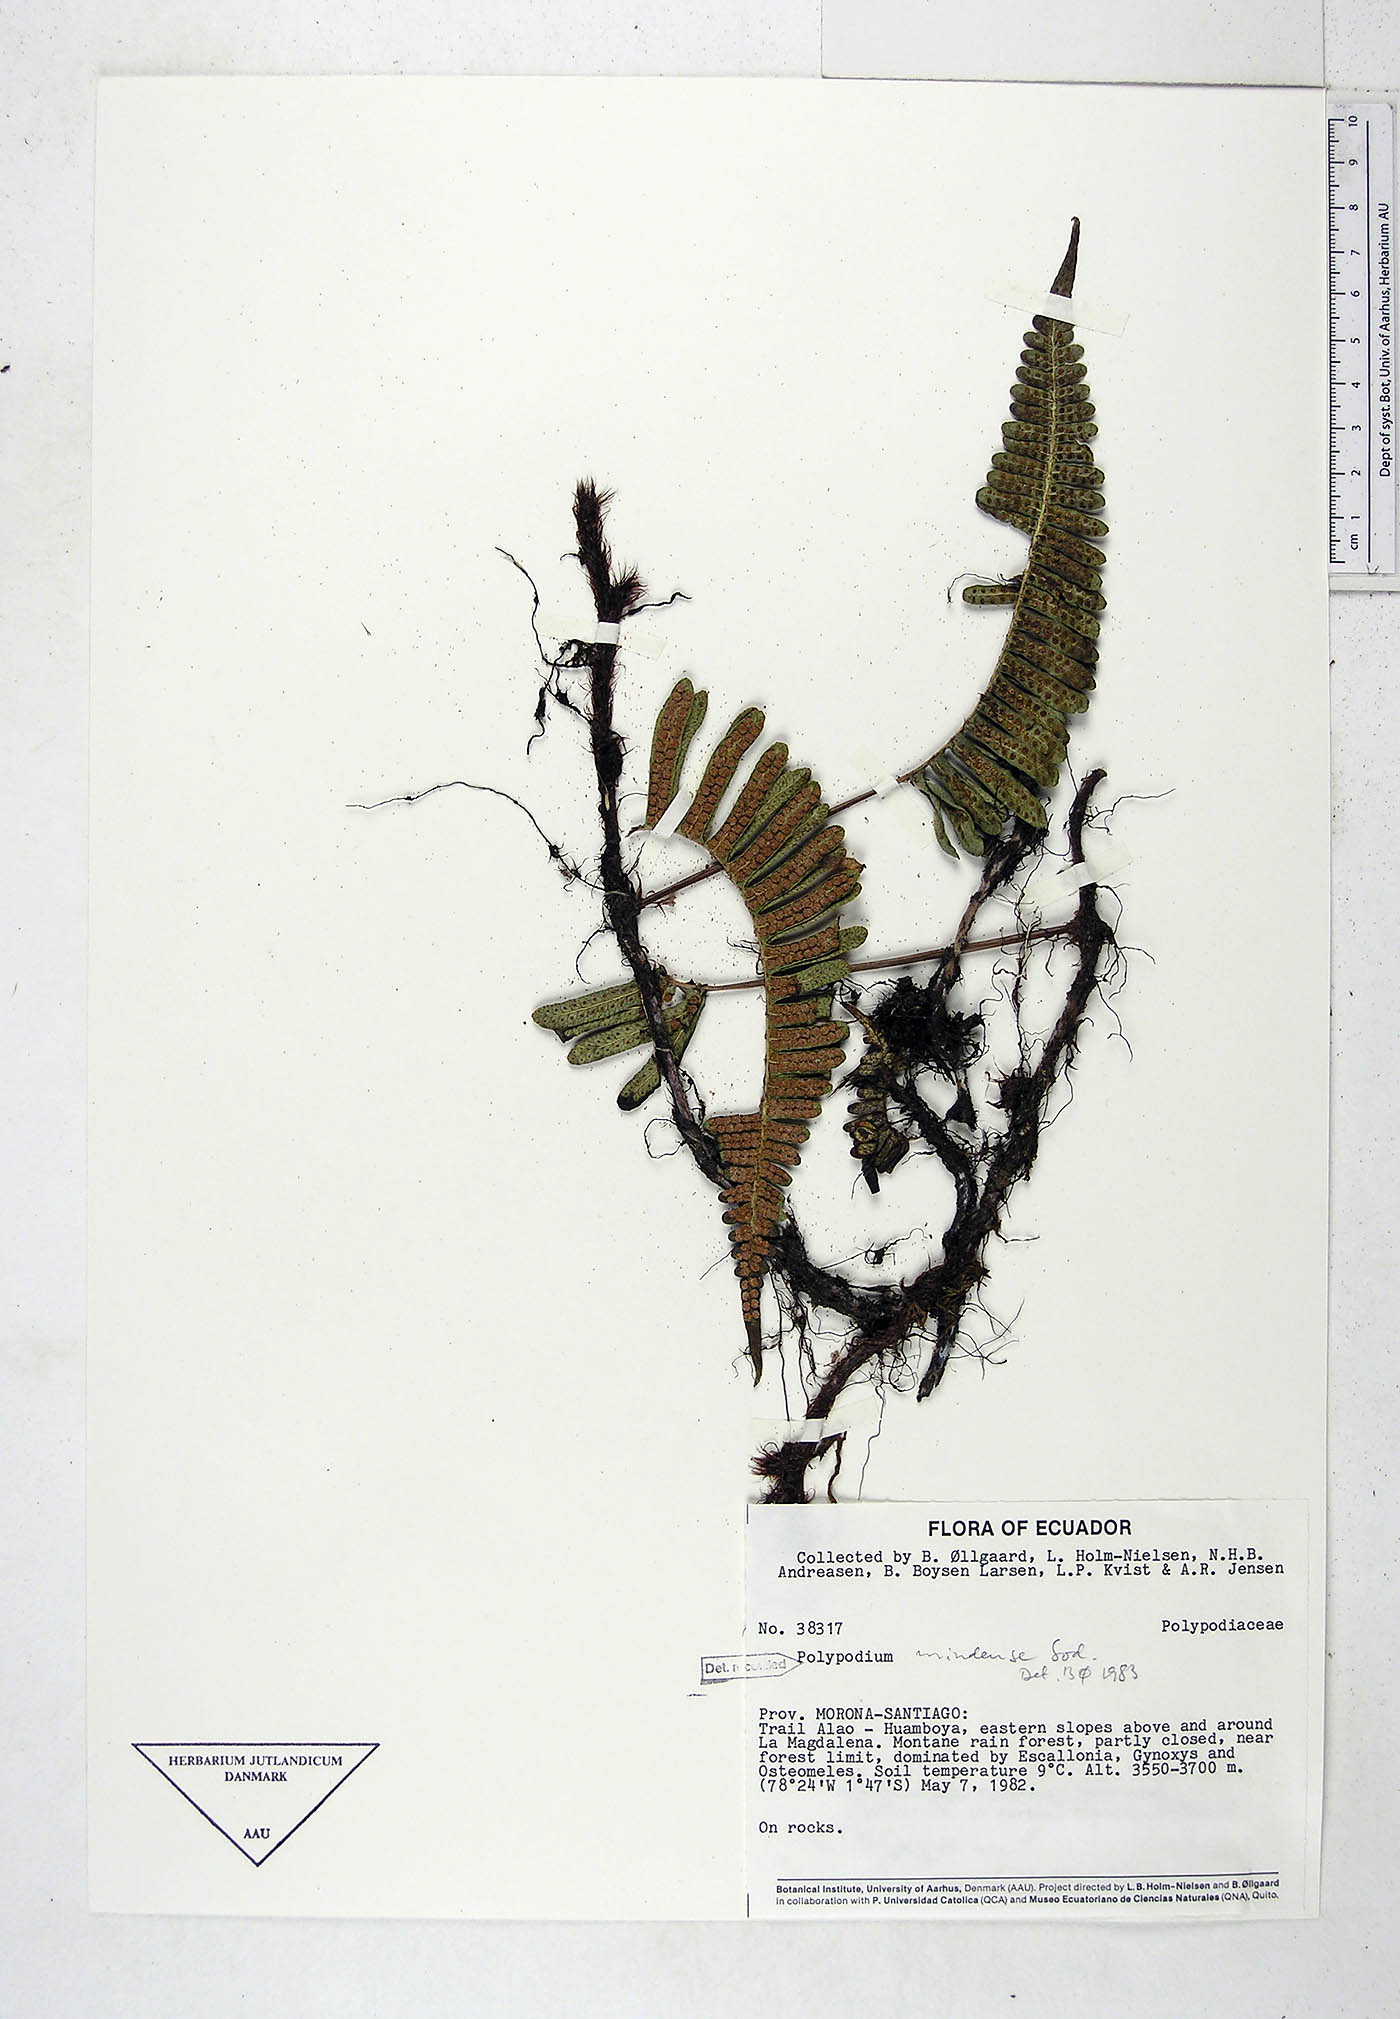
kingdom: Plantae
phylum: Tracheophyta
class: Polypodiopsida
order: Polypodiales
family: Polypodiaceae
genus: Serpocaulon
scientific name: Serpocaulon eleutherophlebium
